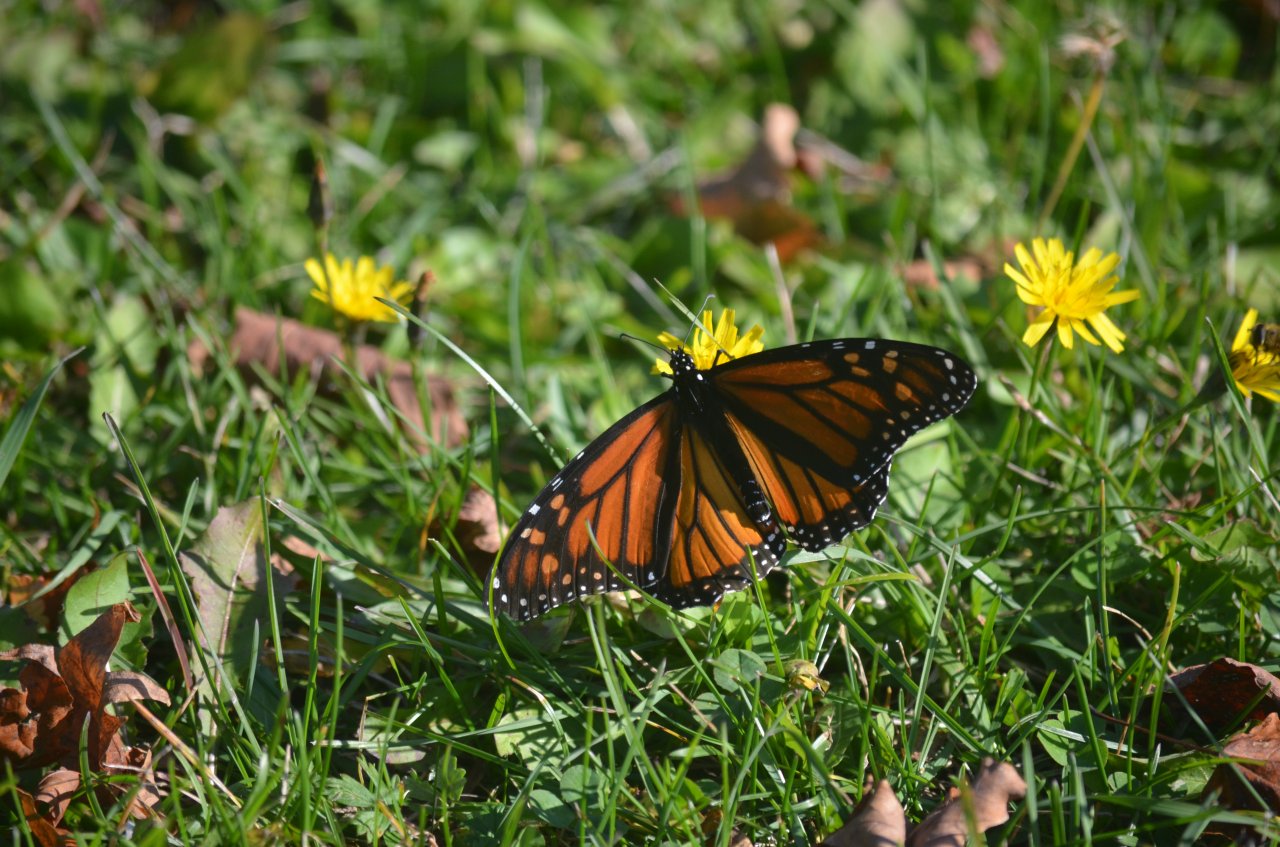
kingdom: Animalia
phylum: Arthropoda
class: Insecta
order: Lepidoptera
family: Nymphalidae
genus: Danaus
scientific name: Danaus plexippus
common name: Monarch
